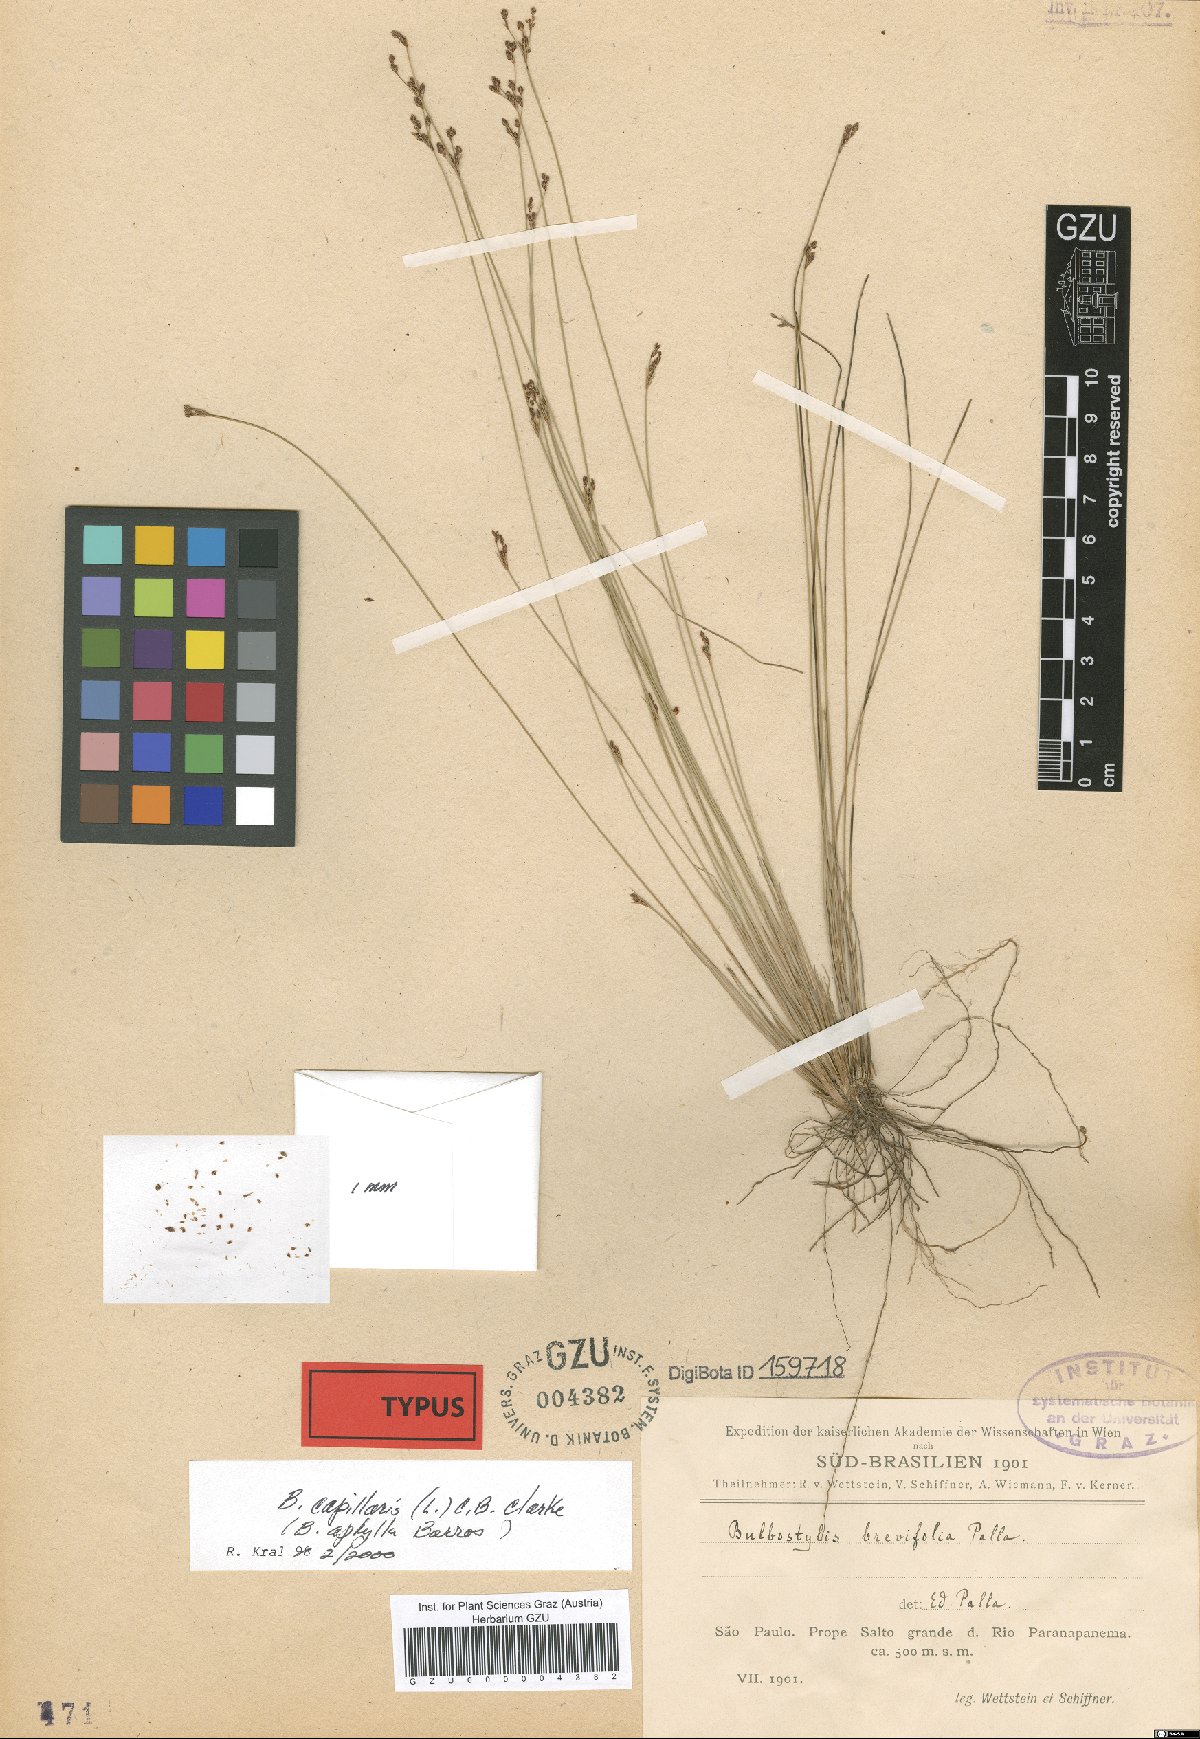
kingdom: Plantae
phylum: Tracheophyta
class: Liliopsida
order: Poales
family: Cyperaceae
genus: Bulbostylis
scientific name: Bulbostylis brevifolia
